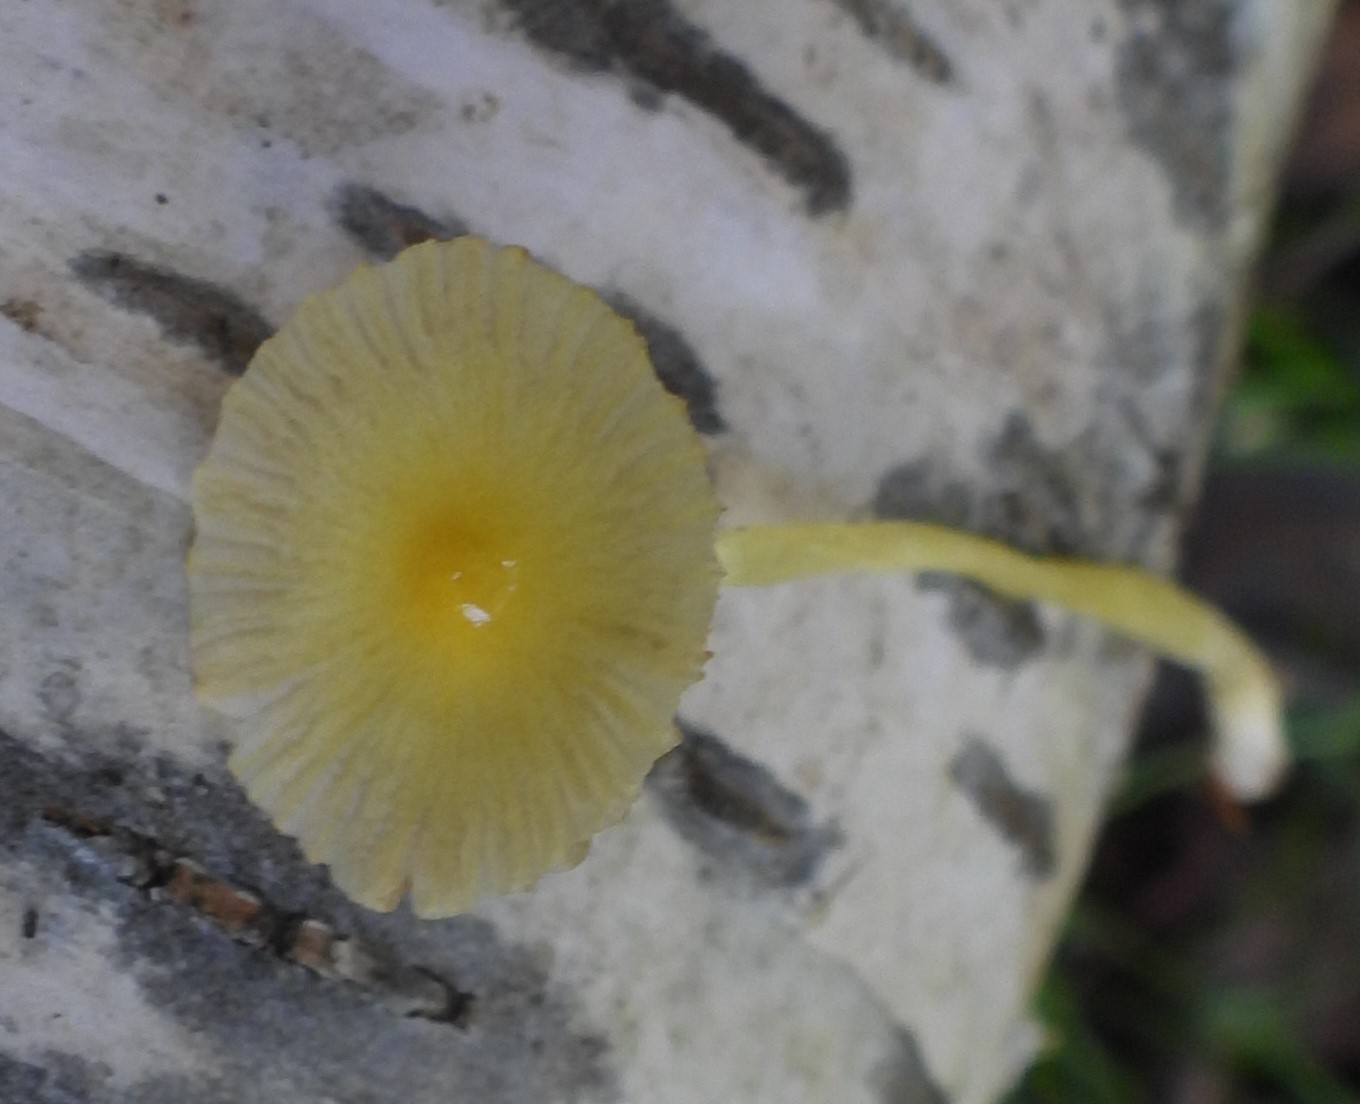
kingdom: Fungi
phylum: Basidiomycota
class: Agaricomycetes
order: Agaricales
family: Bolbitiaceae
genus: Bolbitius
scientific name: Bolbitius titubans
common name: almindelig gulhat
